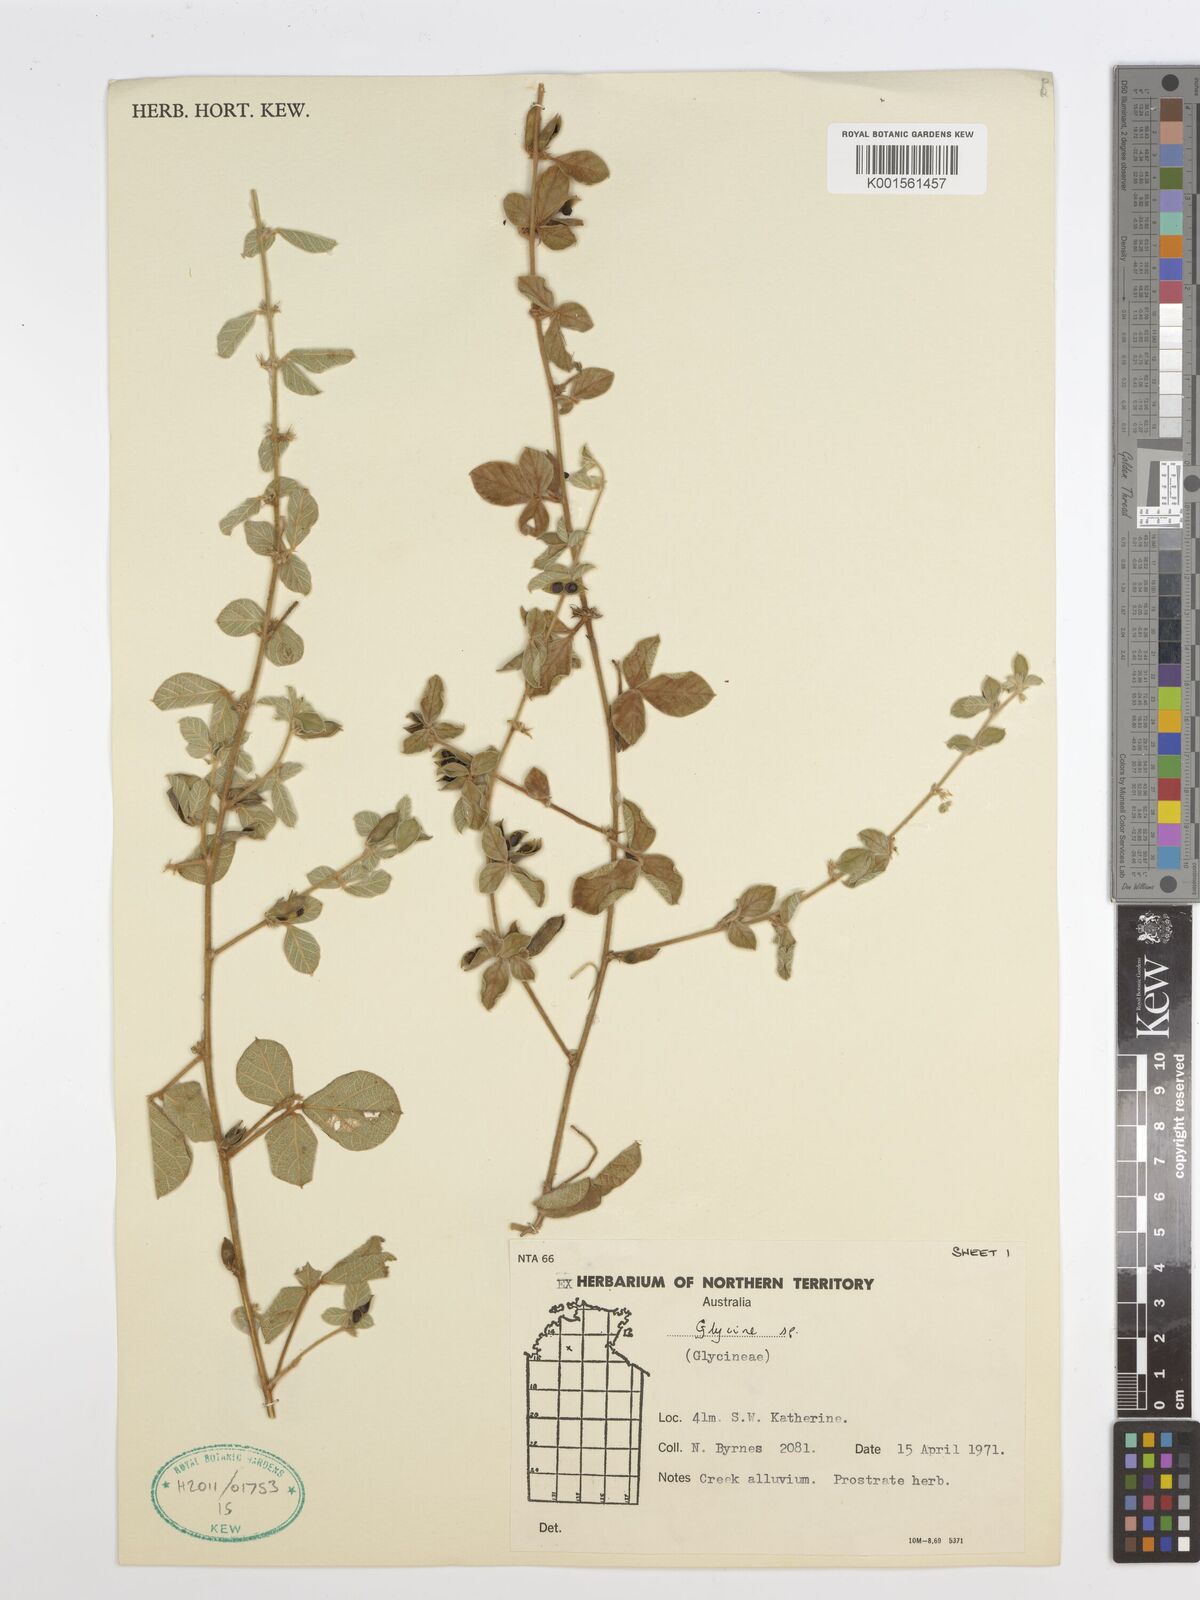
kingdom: Plantae
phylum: Tracheophyta
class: Magnoliopsida
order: Fabales
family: Fabaceae
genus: Glycine
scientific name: Glycine tomentella
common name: Hairy glycine
